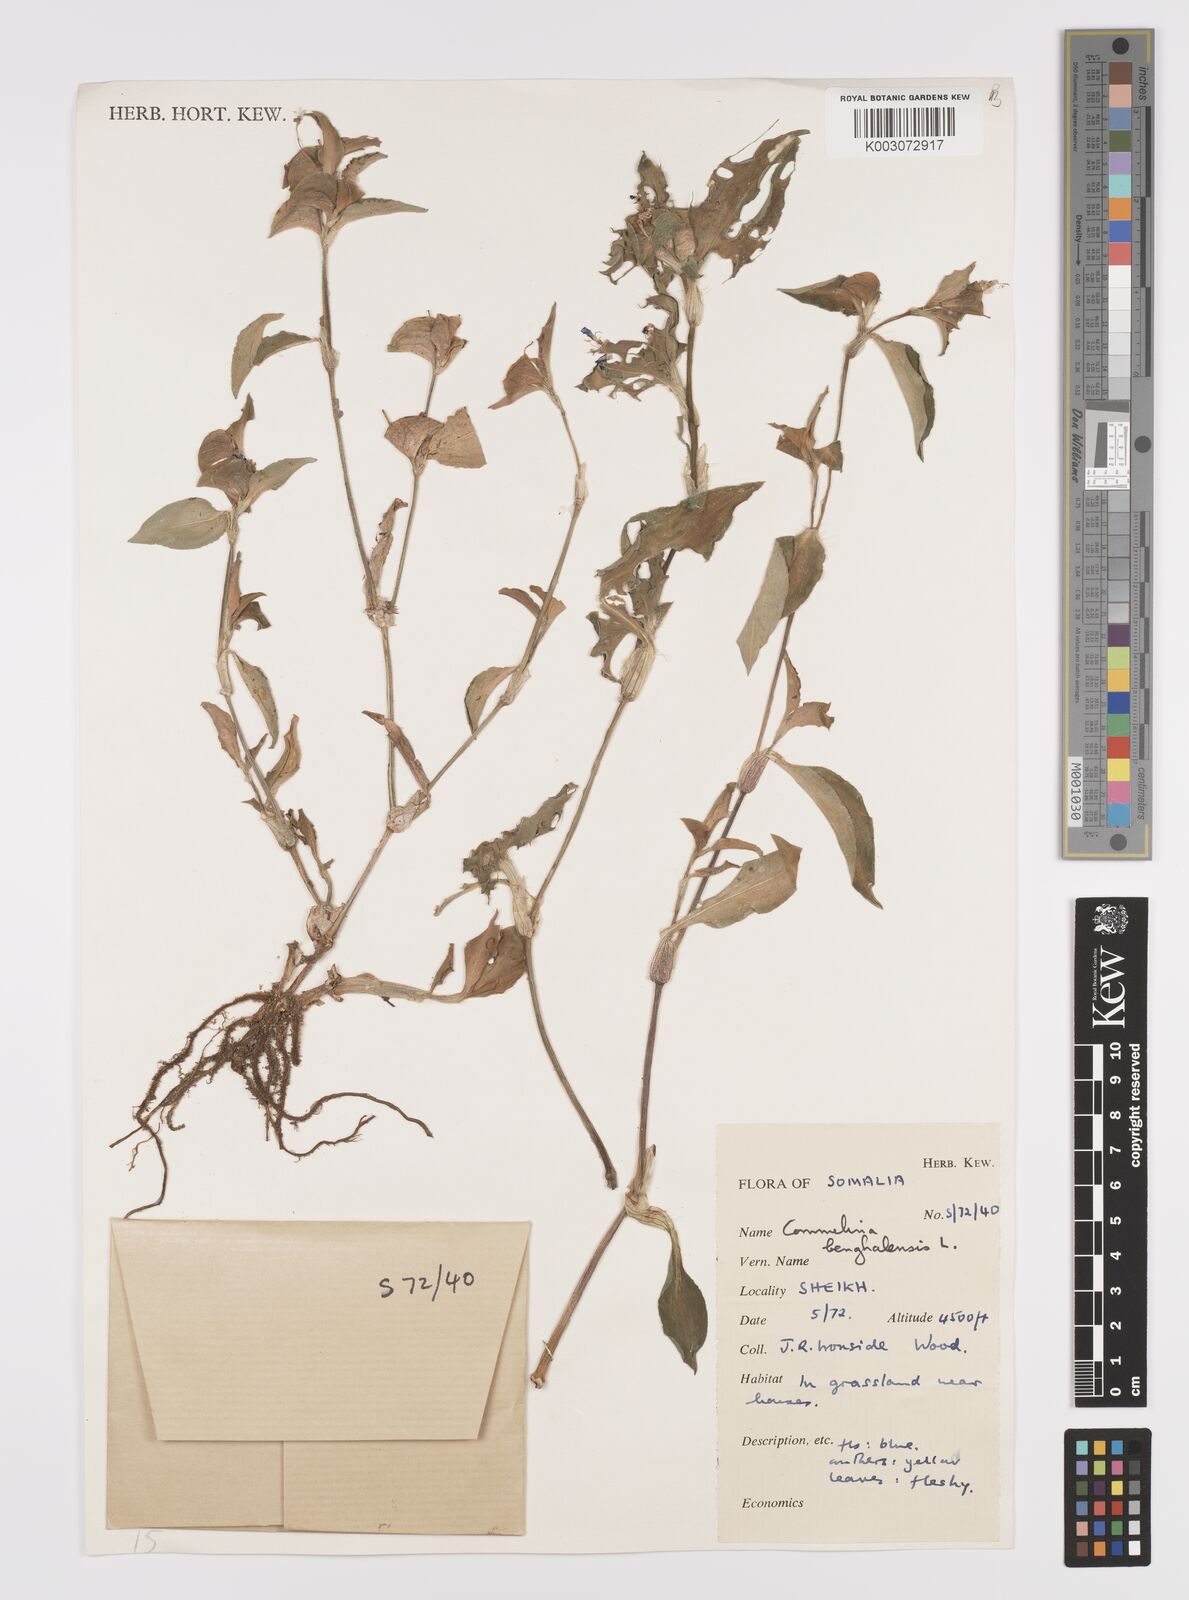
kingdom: Plantae
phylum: Tracheophyta
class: Liliopsida
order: Commelinales
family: Commelinaceae
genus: Commelina
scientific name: Commelina benghalensis
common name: Jio
